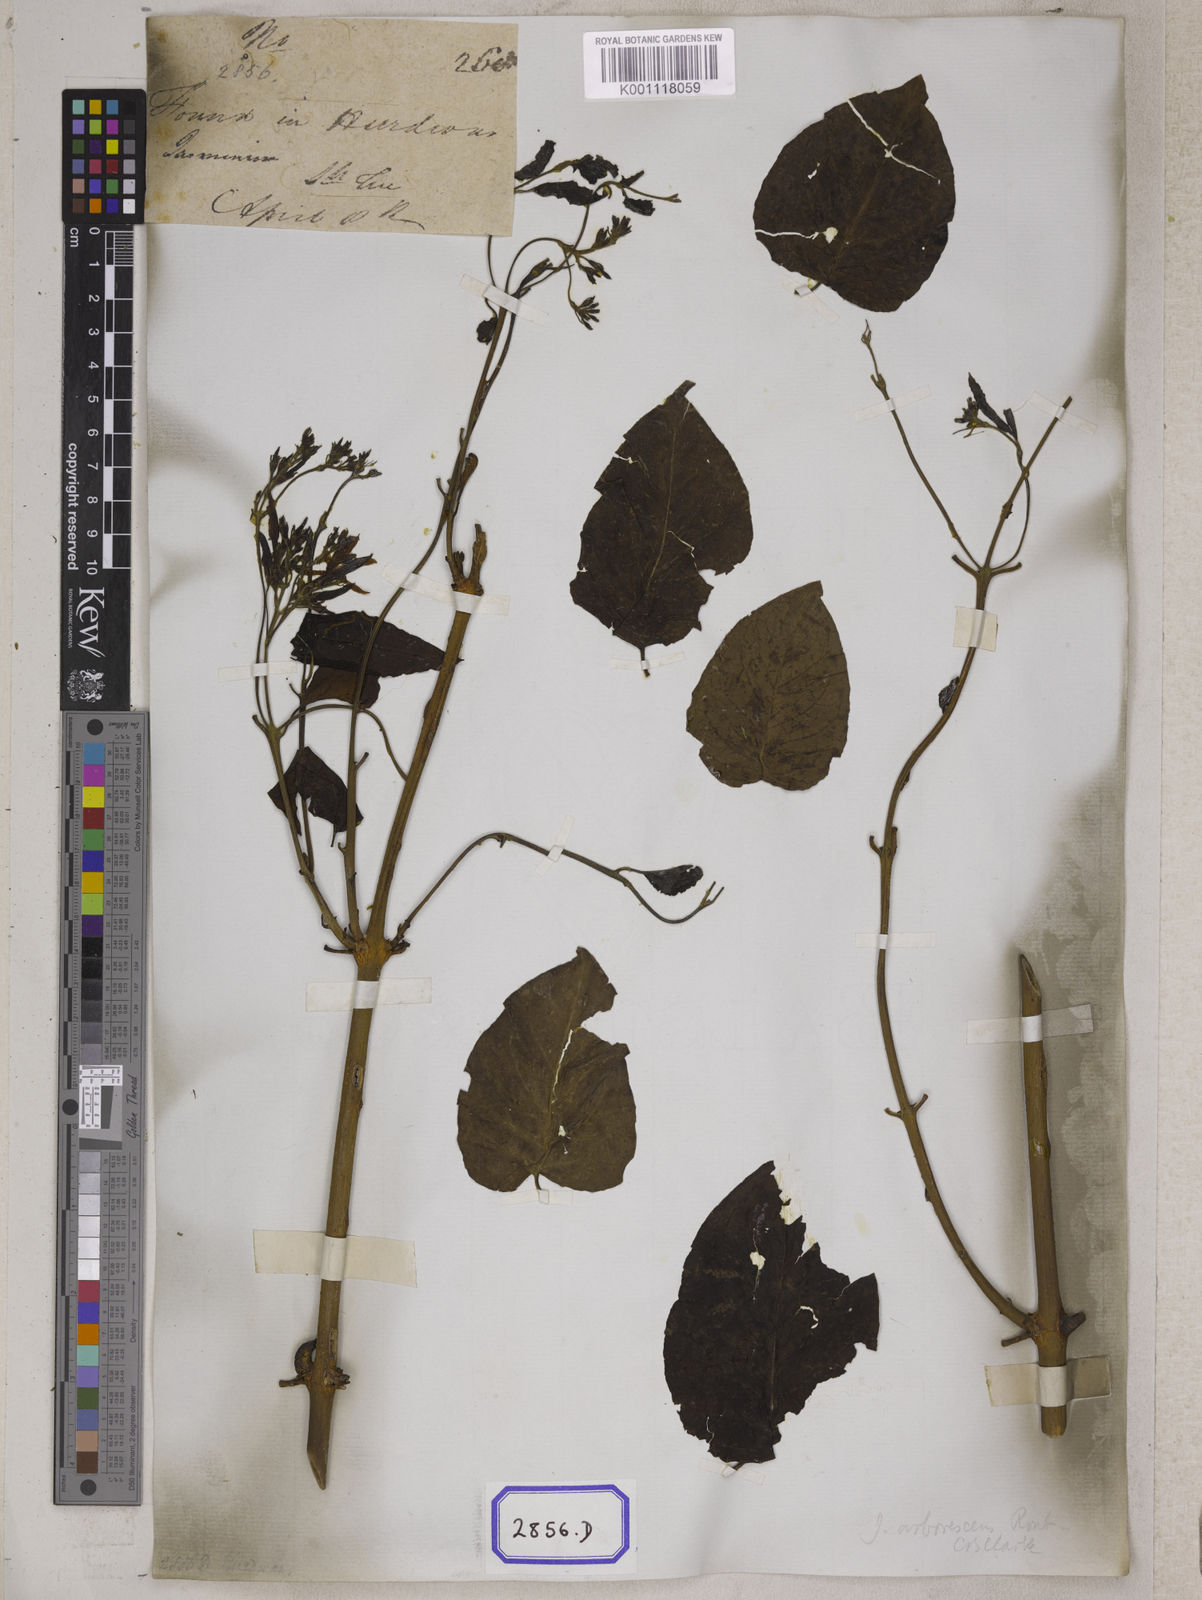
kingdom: Plantae
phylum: Tracheophyta
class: Magnoliopsida
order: Lamiales
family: Oleaceae
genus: Jasminum
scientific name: Jasminum arborescens
